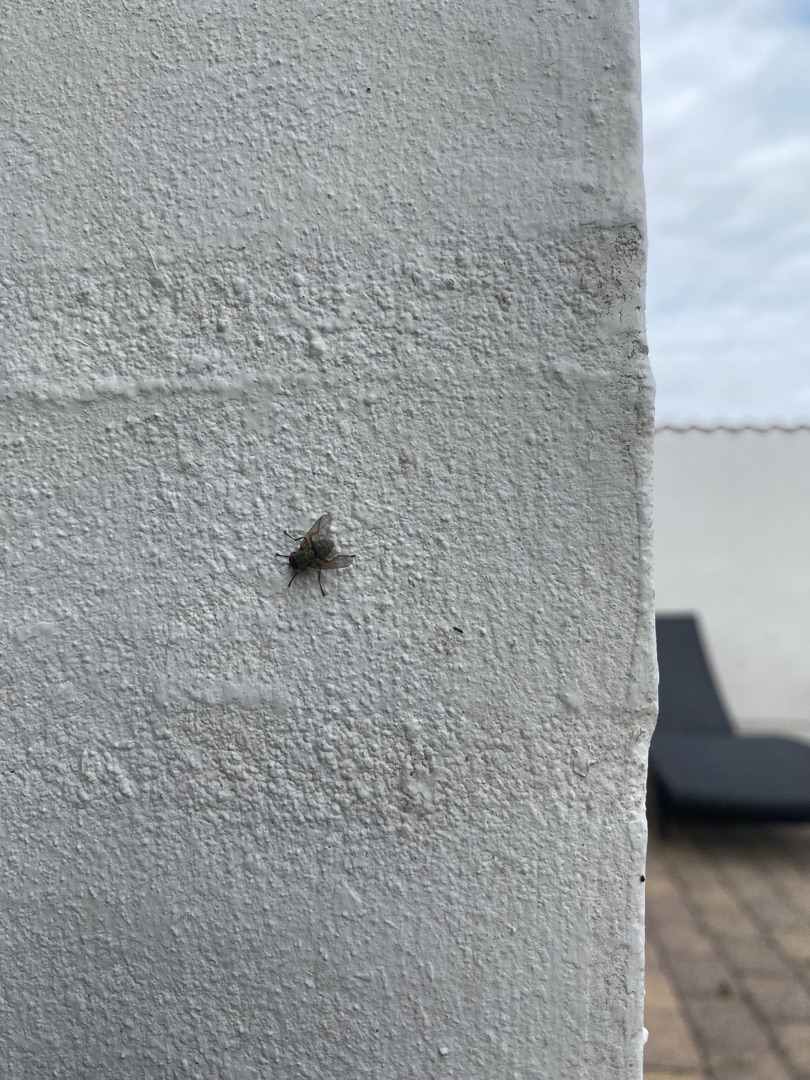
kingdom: Animalia
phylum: Arthropoda
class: Insecta
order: Diptera
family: Muscidae
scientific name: Muscidae
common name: Egentlige fluer
